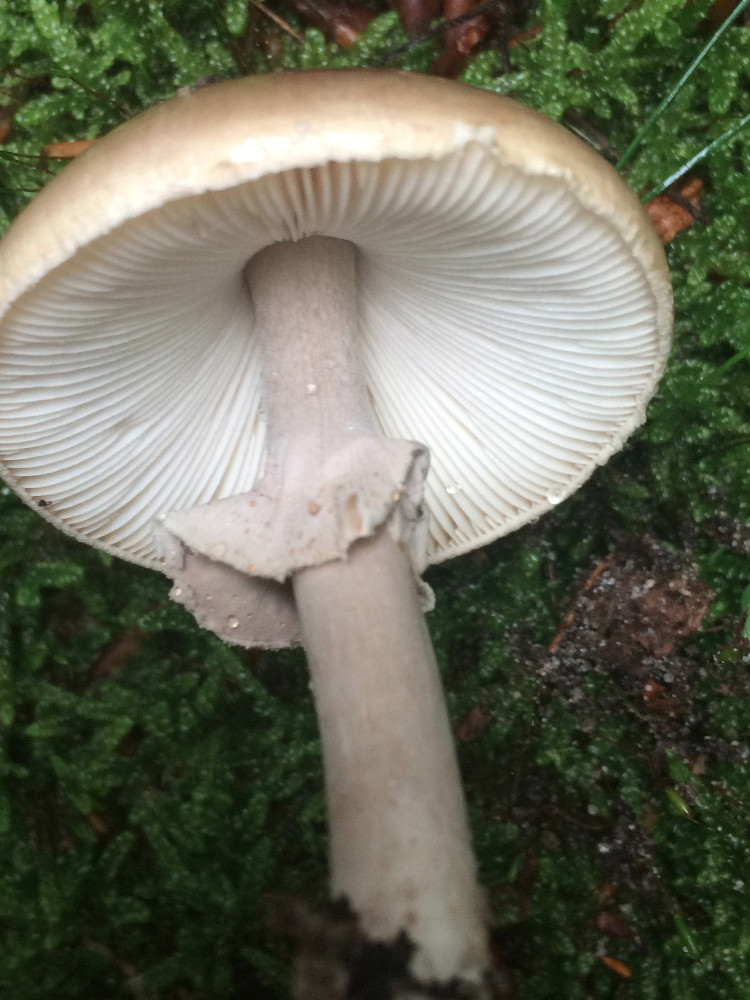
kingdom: Fungi
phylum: Basidiomycota
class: Agaricomycetes
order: Agaricales
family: Amanitaceae
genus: Amanita
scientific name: Amanita porphyria
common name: porfyr-fluesvamp
